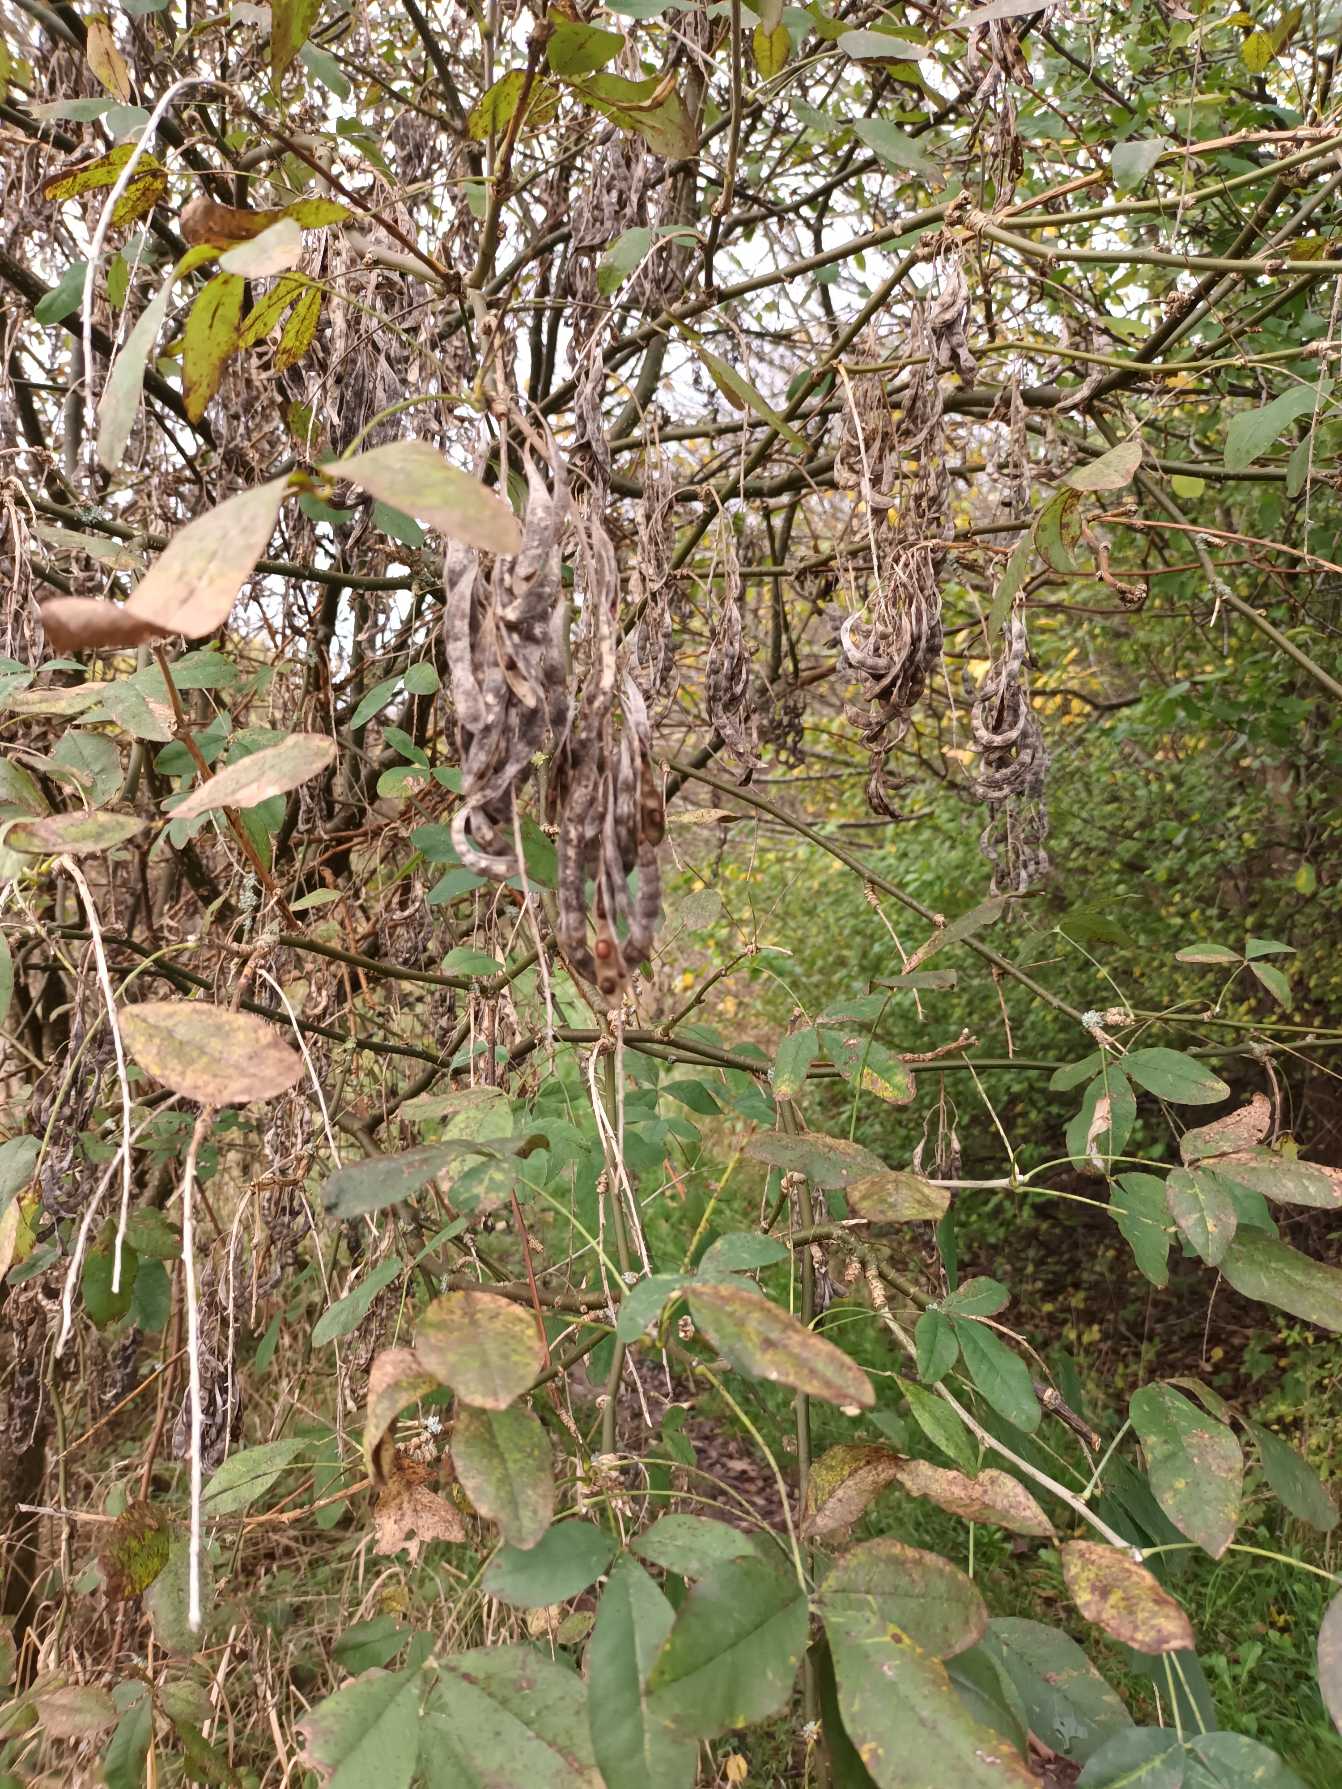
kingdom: Plantae
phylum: Tracheophyta
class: Magnoliopsida
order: Fabales
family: Fabaceae
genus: Laburnum
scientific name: Laburnum anagyroides
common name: Guldregn
